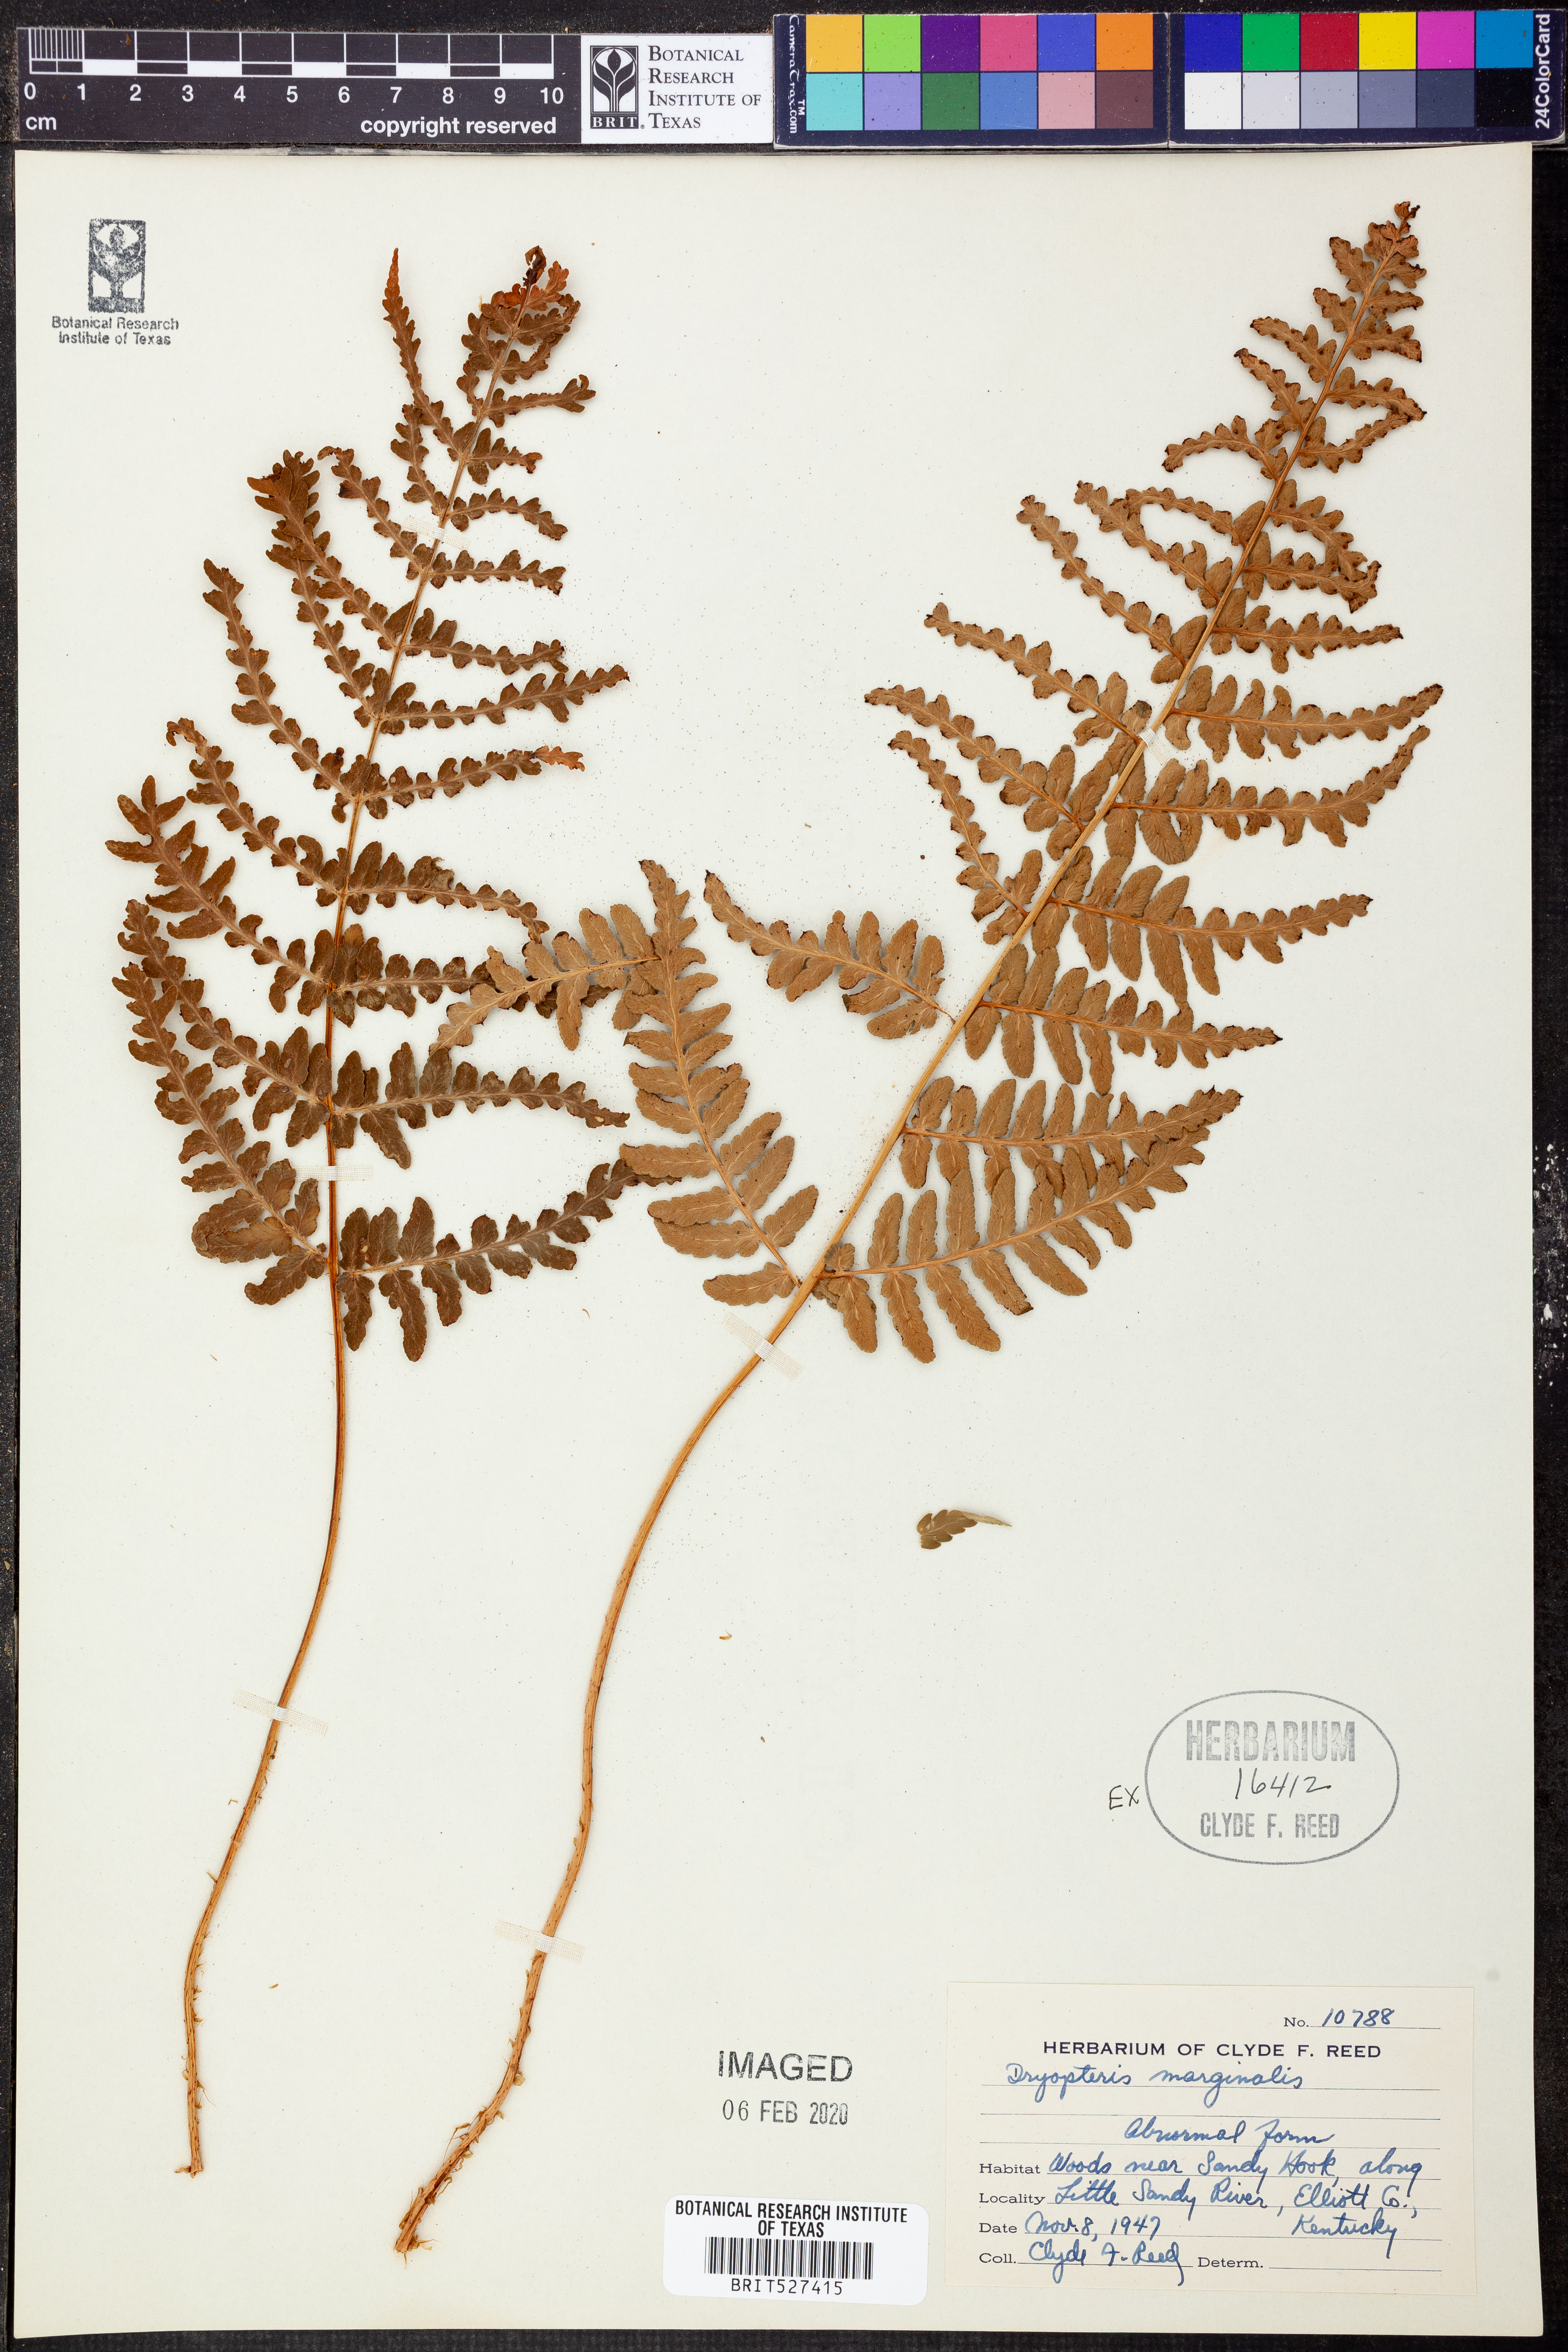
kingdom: Plantae
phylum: Tracheophyta
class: Polypodiopsida
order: Polypodiales
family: Dryopteridaceae
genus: Dryopteris
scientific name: Dryopteris marginalis
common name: Marginal wood fern
